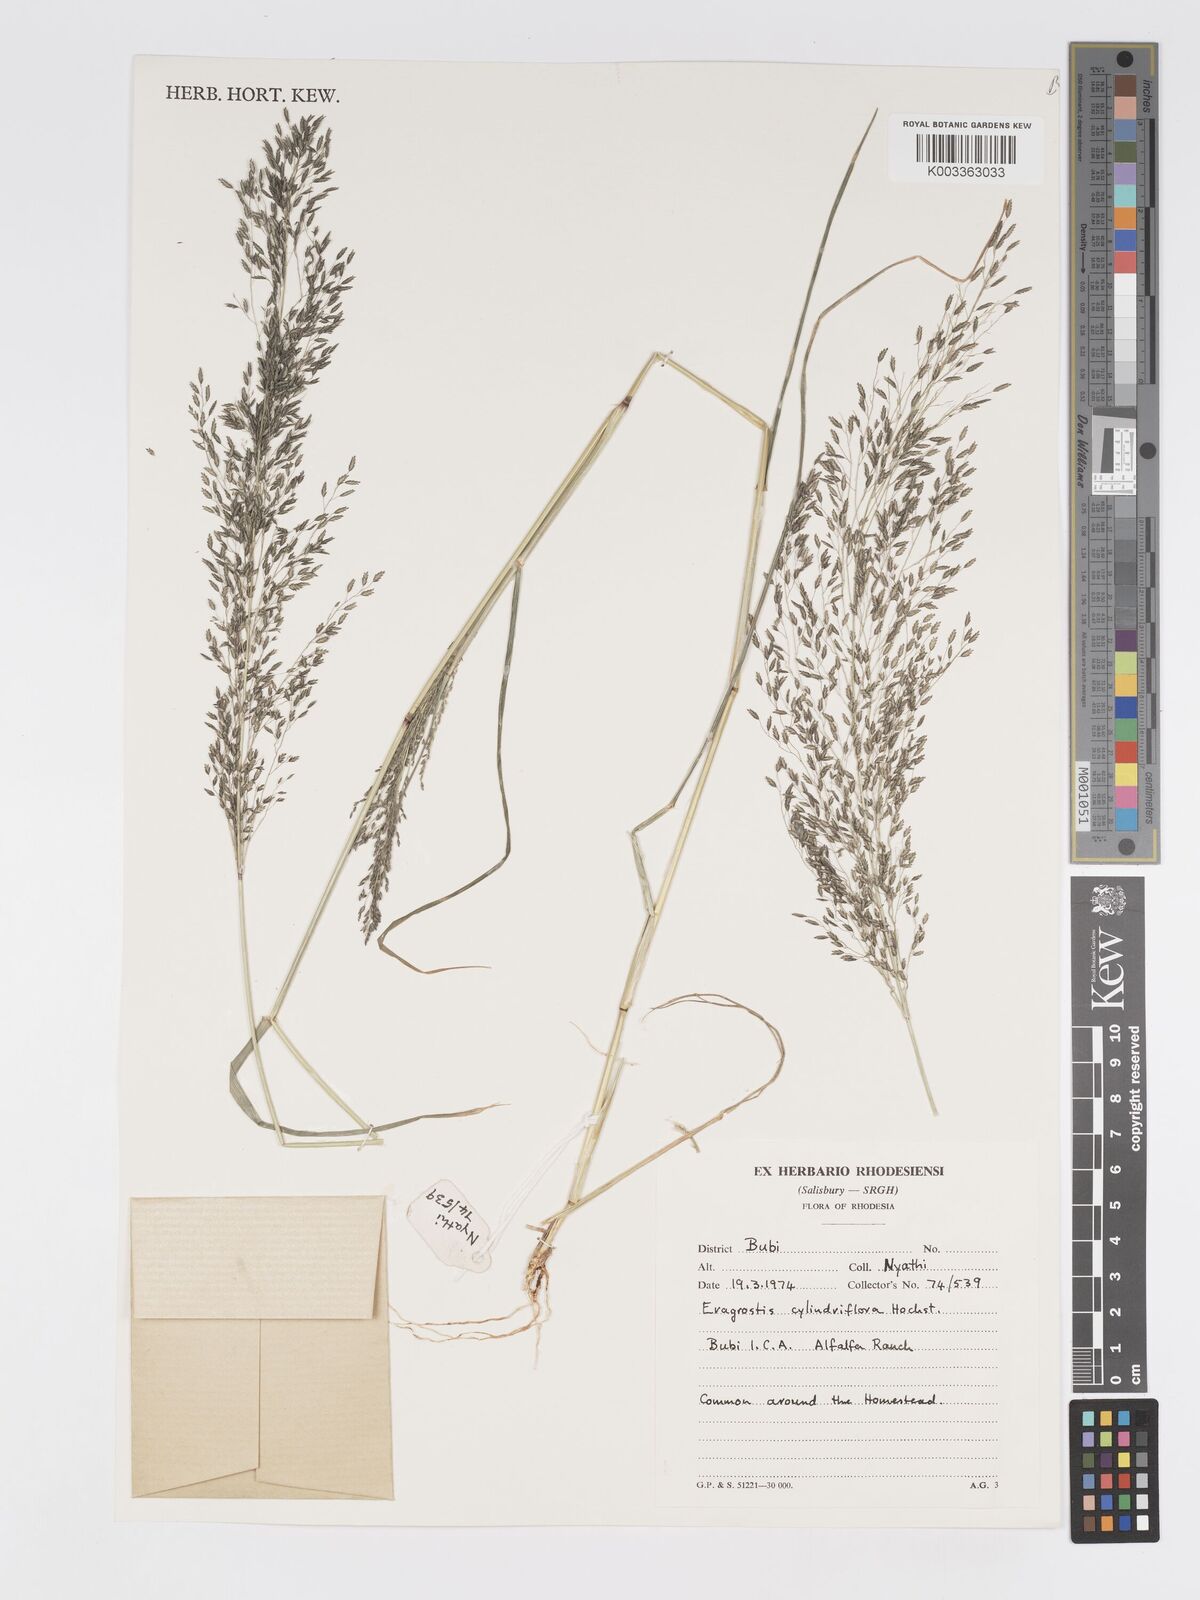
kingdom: Plantae
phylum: Tracheophyta
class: Liliopsida
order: Poales
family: Poaceae
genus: Eragrostis
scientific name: Eragrostis cylindriflora
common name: Cylinderflower lovegrass
